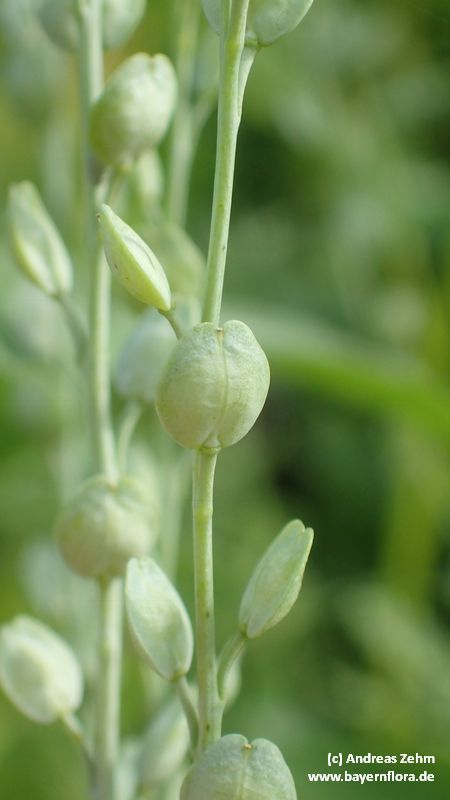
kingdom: Plantae
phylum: Tracheophyta
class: Magnoliopsida
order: Brassicales
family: Brassicaceae
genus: Lepidium
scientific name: Lepidium sativum
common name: Garden cress
